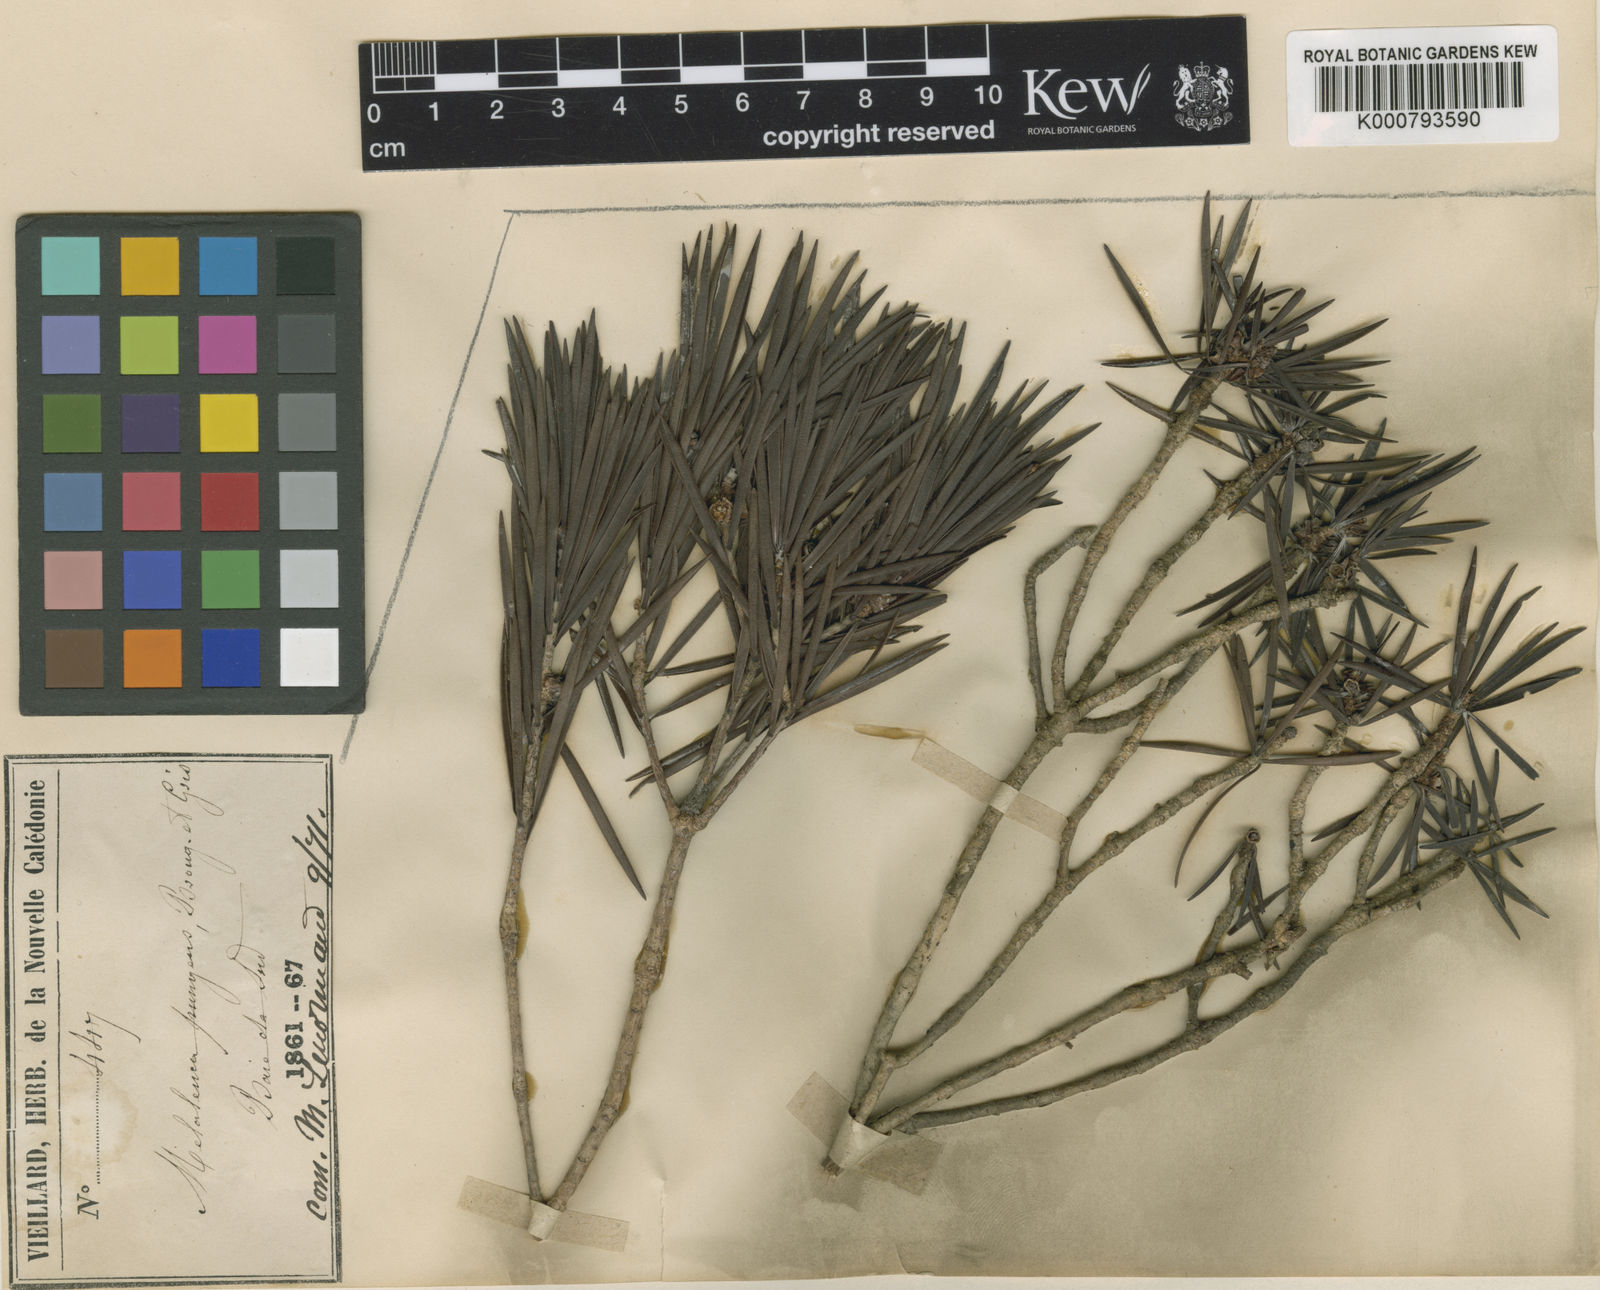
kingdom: Plantae
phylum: Tracheophyta
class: Magnoliopsida
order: Myrtales
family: Myrtaceae
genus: Melaleuca
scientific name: Melaleuca brongniartii
